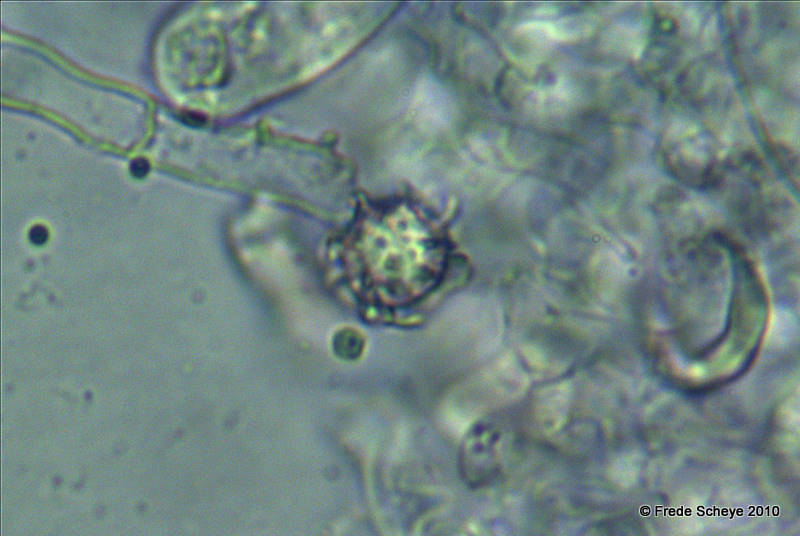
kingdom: Fungi
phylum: Basidiomycota
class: Agaricomycetes
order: Russulales
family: Russulaceae
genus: Lactarius
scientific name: Lactarius romagnesii
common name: fjernbladet mælkehat
